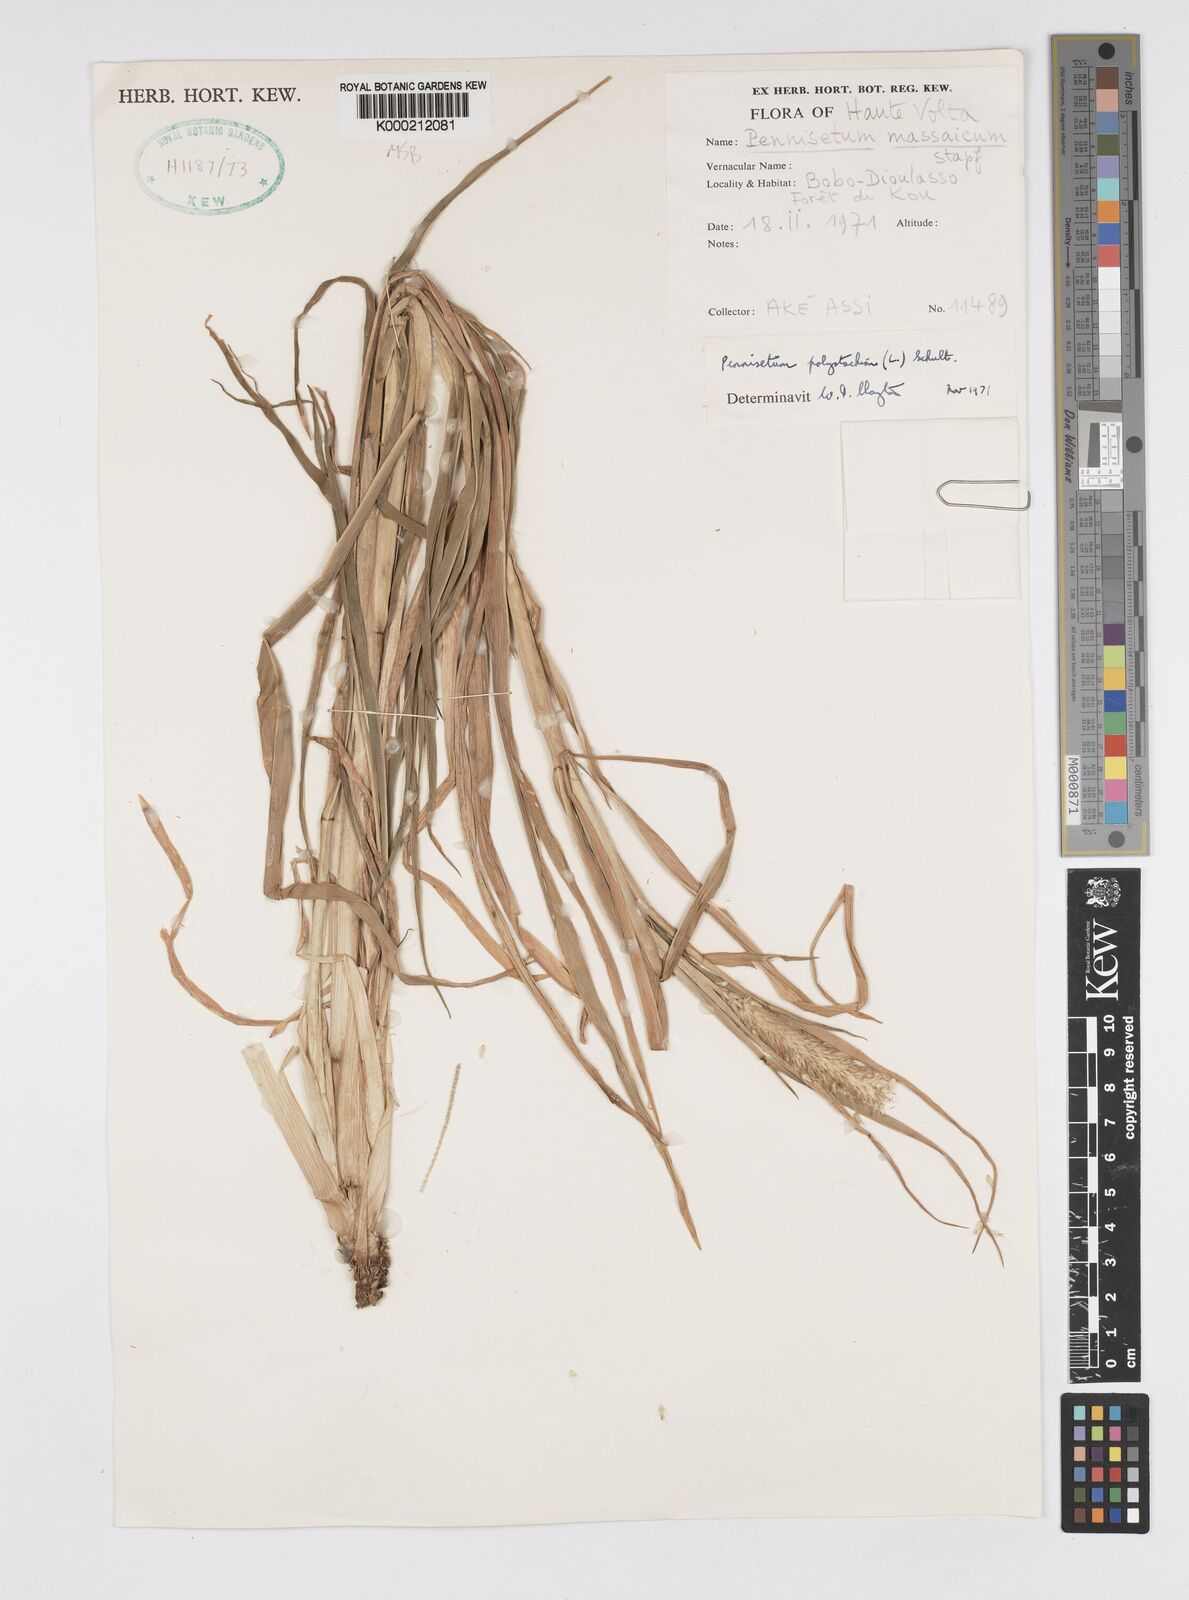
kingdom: Plantae
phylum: Tracheophyta
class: Liliopsida
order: Poales
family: Poaceae
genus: Setaria
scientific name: Setaria parviflora
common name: Knotroot bristle-grass
